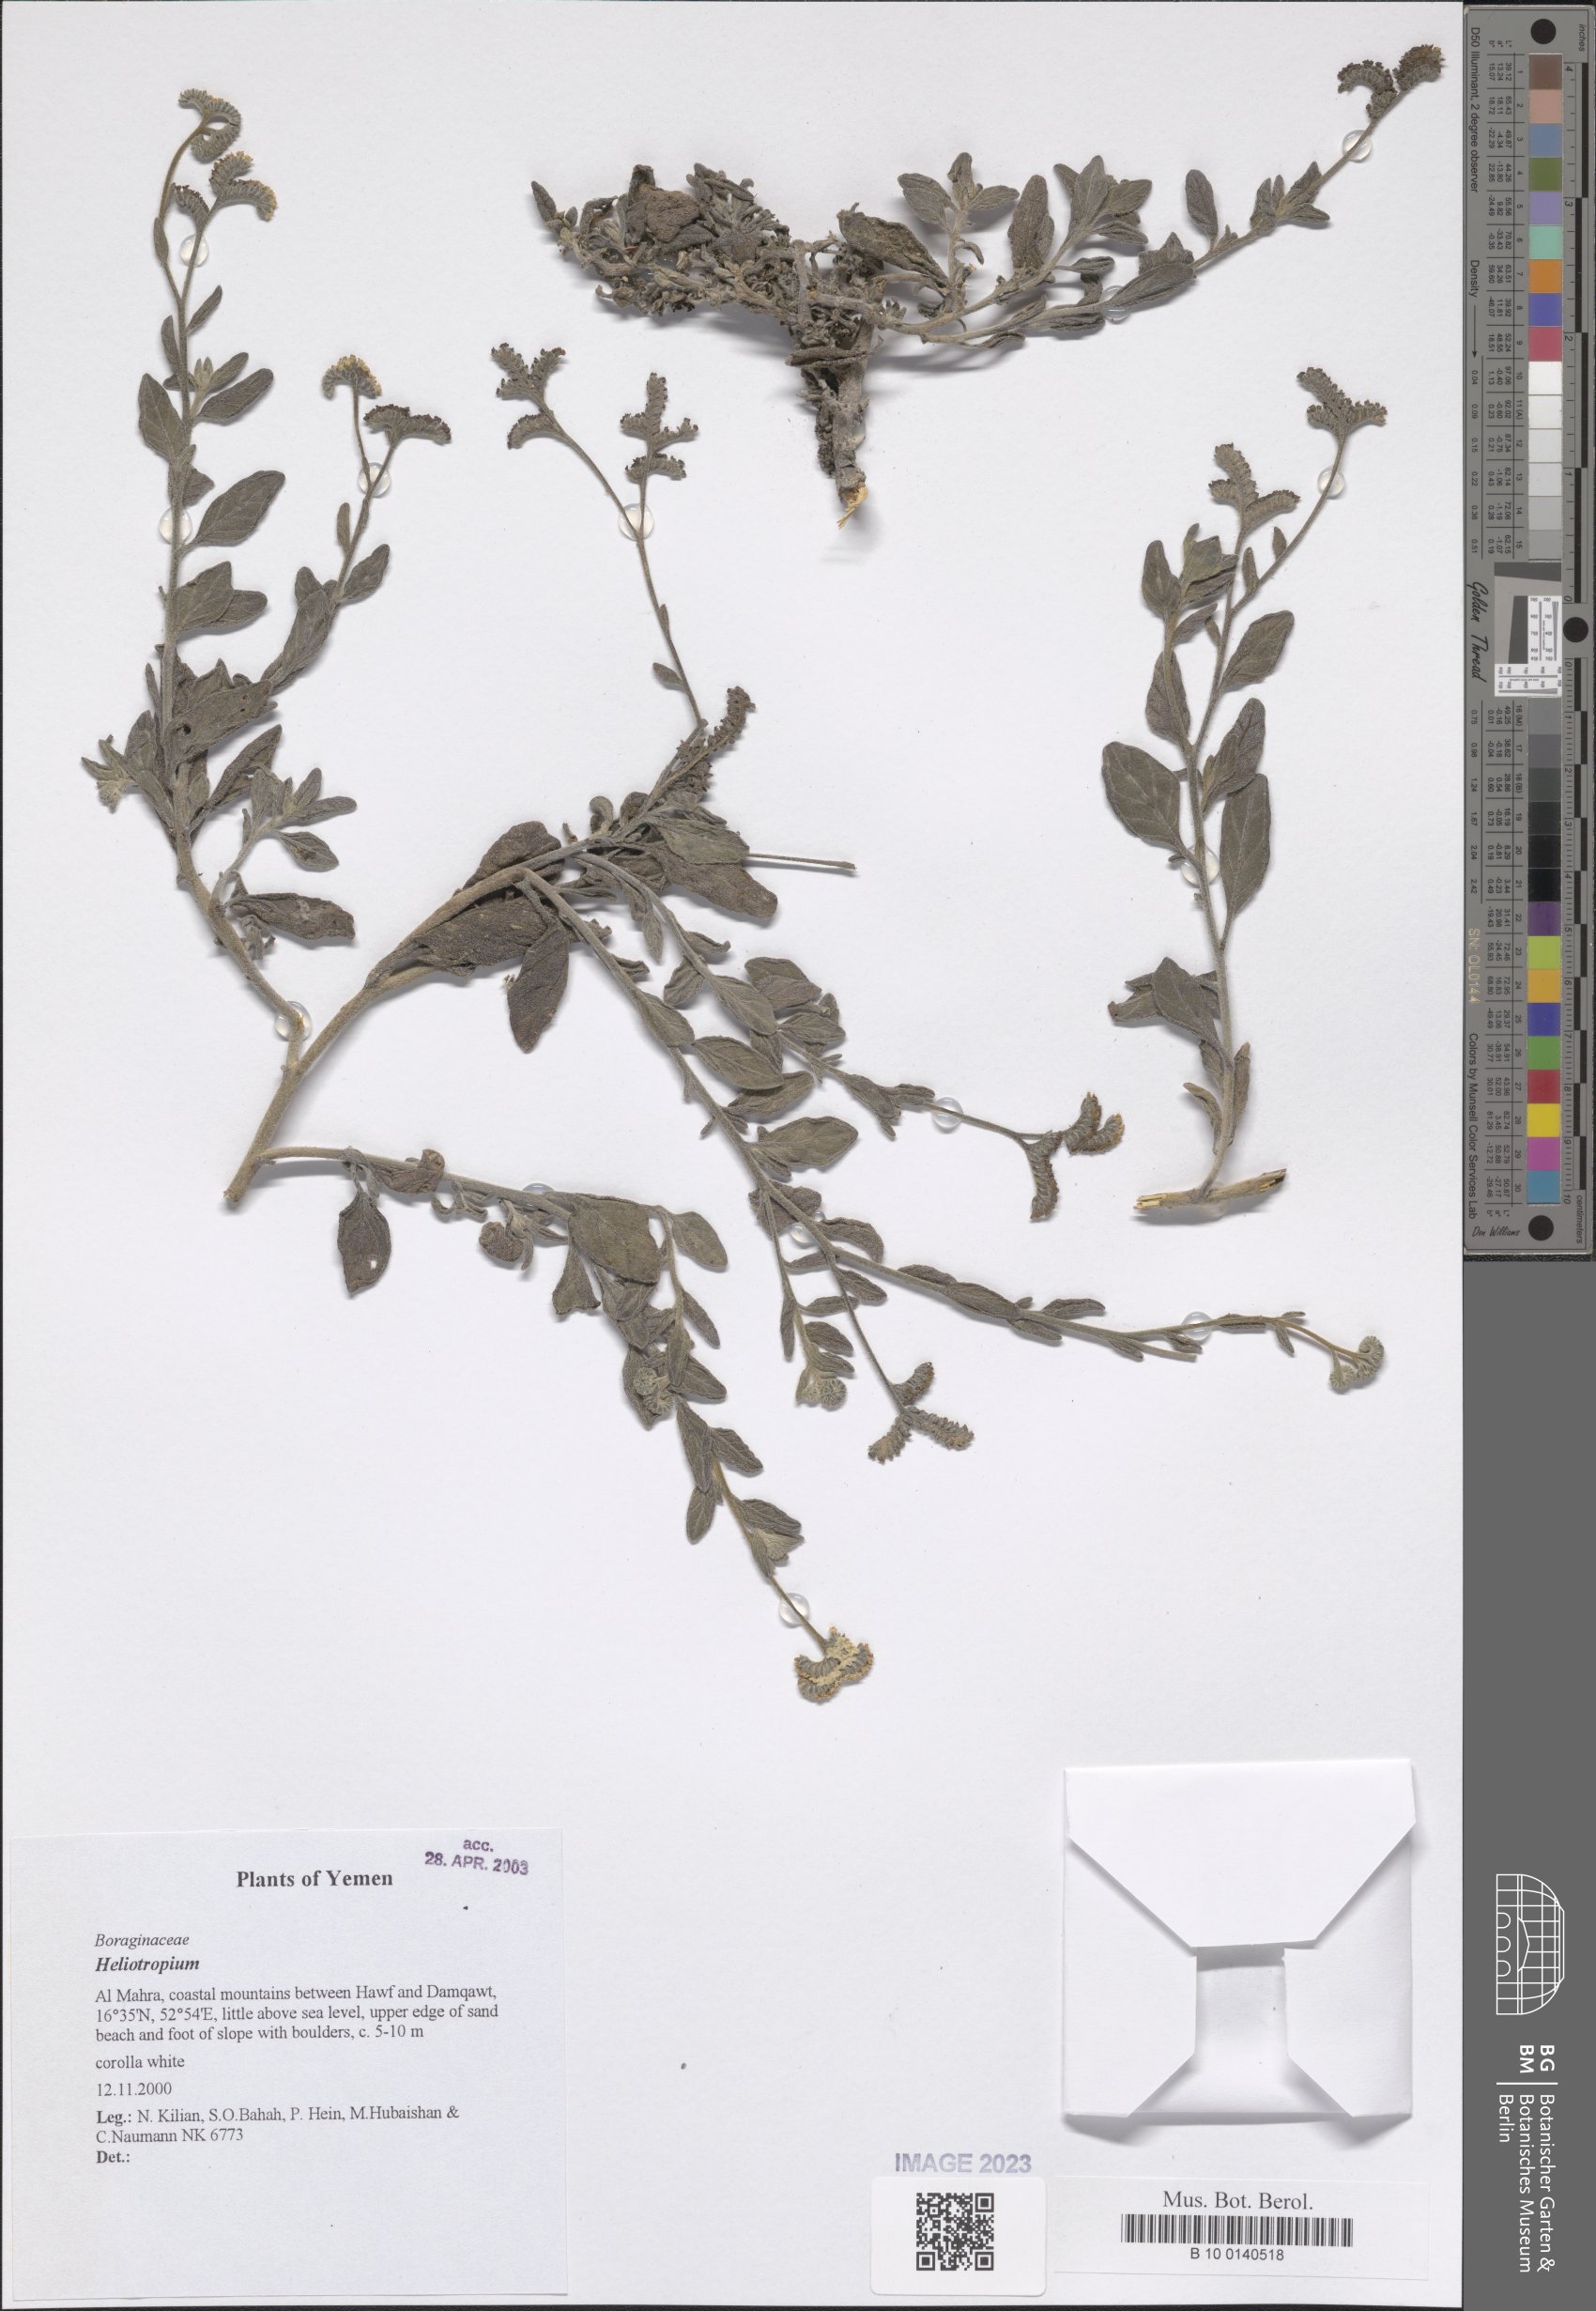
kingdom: Plantae
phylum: Tracheophyta
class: Magnoliopsida
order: Boraginales
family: Heliotropiaceae
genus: Heliotropium
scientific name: Heliotropium
